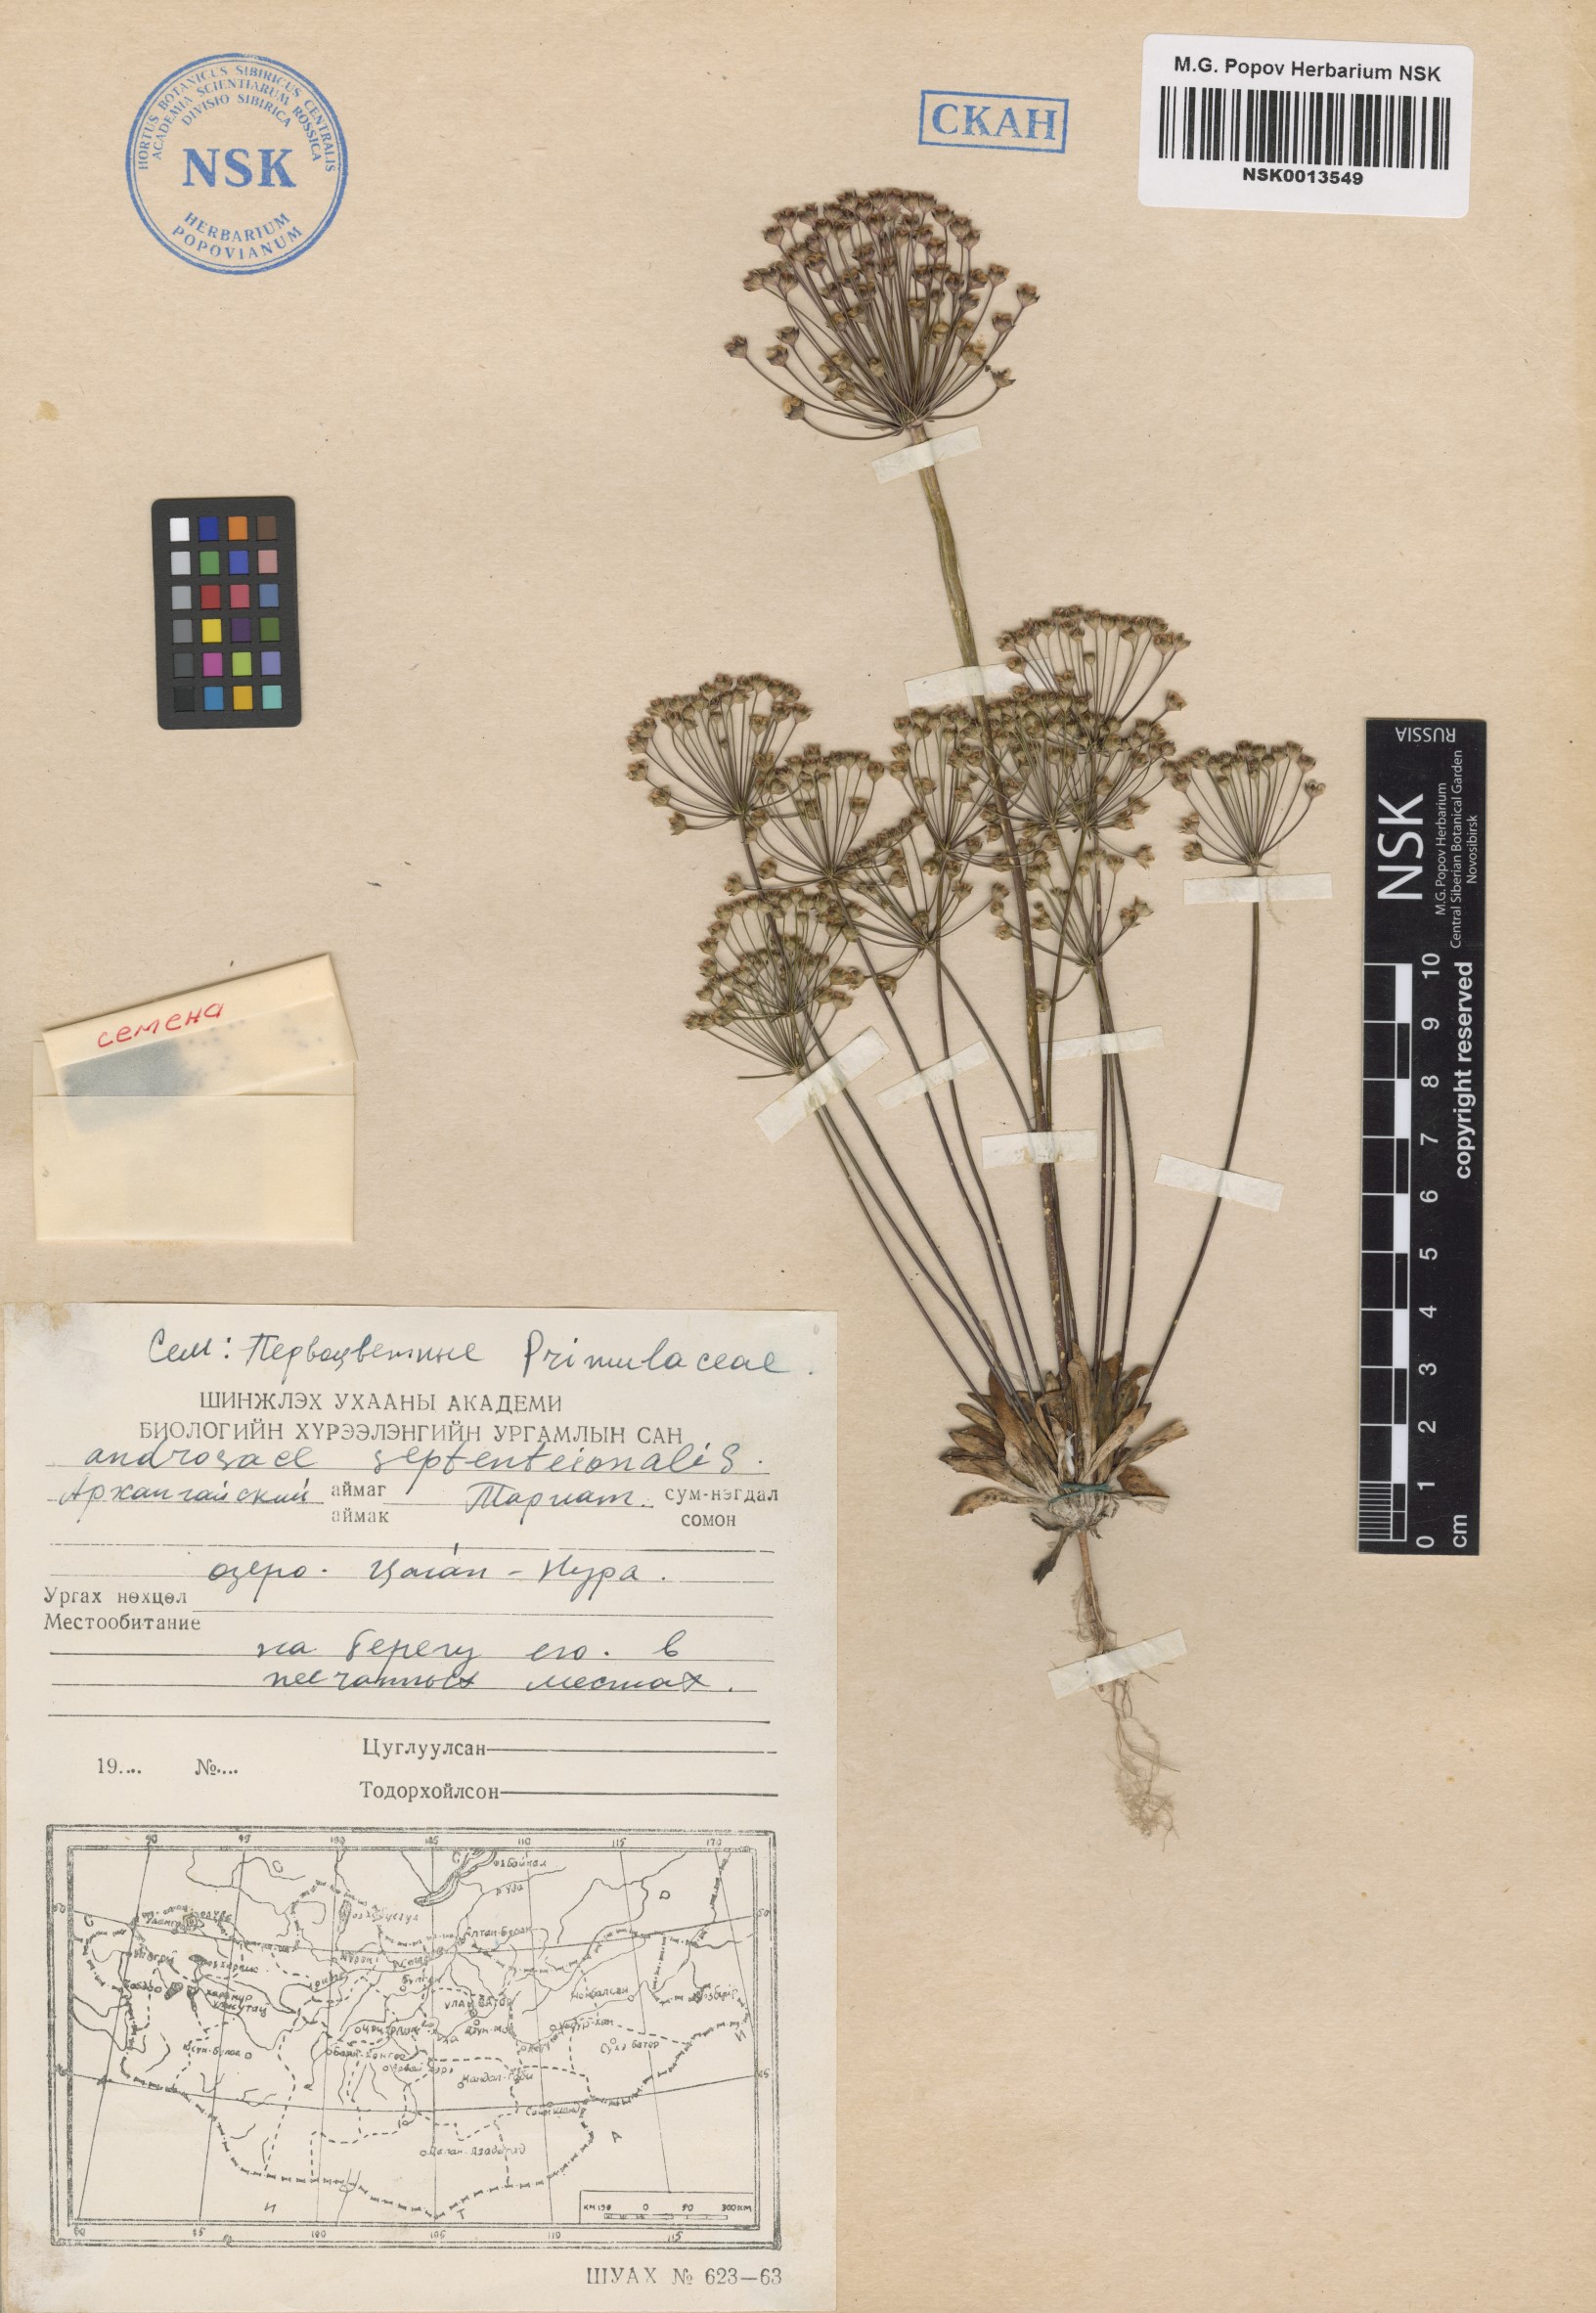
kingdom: Plantae
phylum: Tracheophyta
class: Magnoliopsida
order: Ericales
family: Primulaceae
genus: Androsace
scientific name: Androsace septentrionalis
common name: Hairy northern fairy-candelabra
